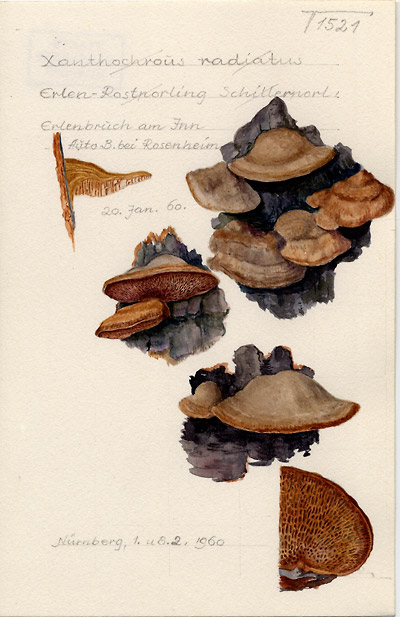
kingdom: Fungi
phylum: Basidiomycota
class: Agaricomycetes
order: Hymenochaetales
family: Hymenochaetaceae
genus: Xanthoporia
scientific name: Xanthoporia radiata
